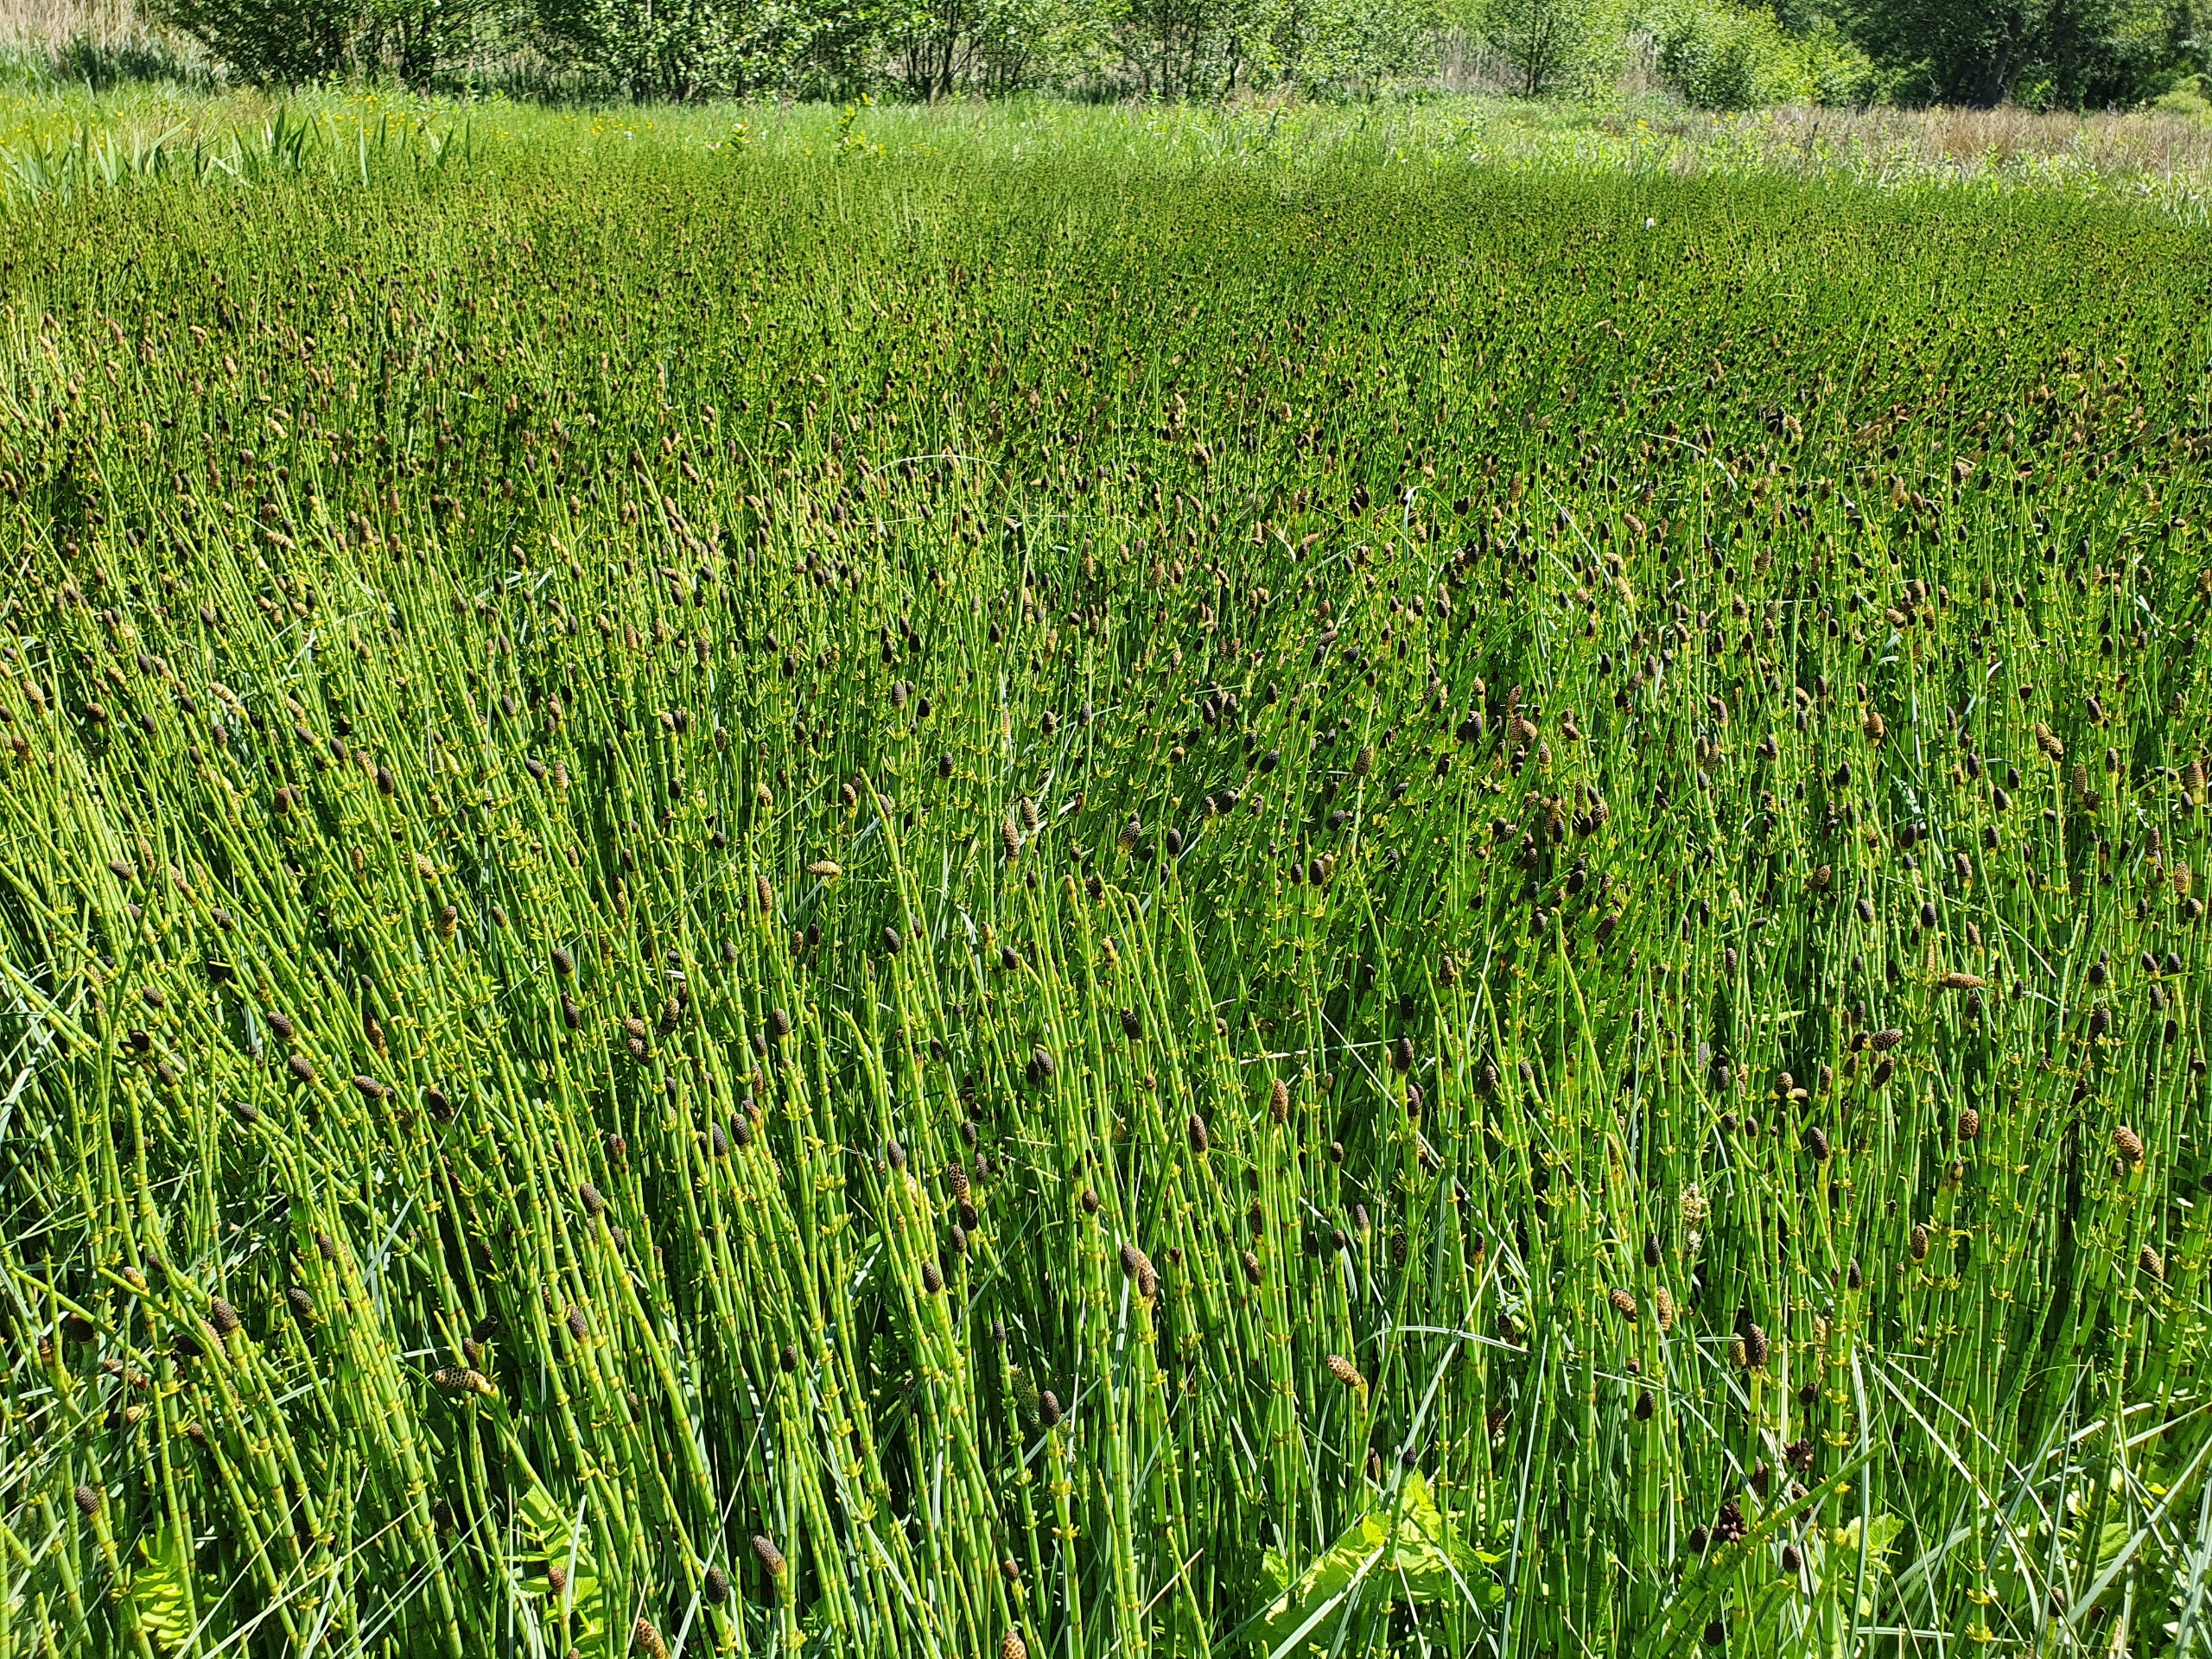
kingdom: Plantae
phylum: Tracheophyta
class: Polypodiopsida
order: Equisetales
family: Equisetaceae
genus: Equisetum
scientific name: Equisetum fluviatile
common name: Dynd-padderok
